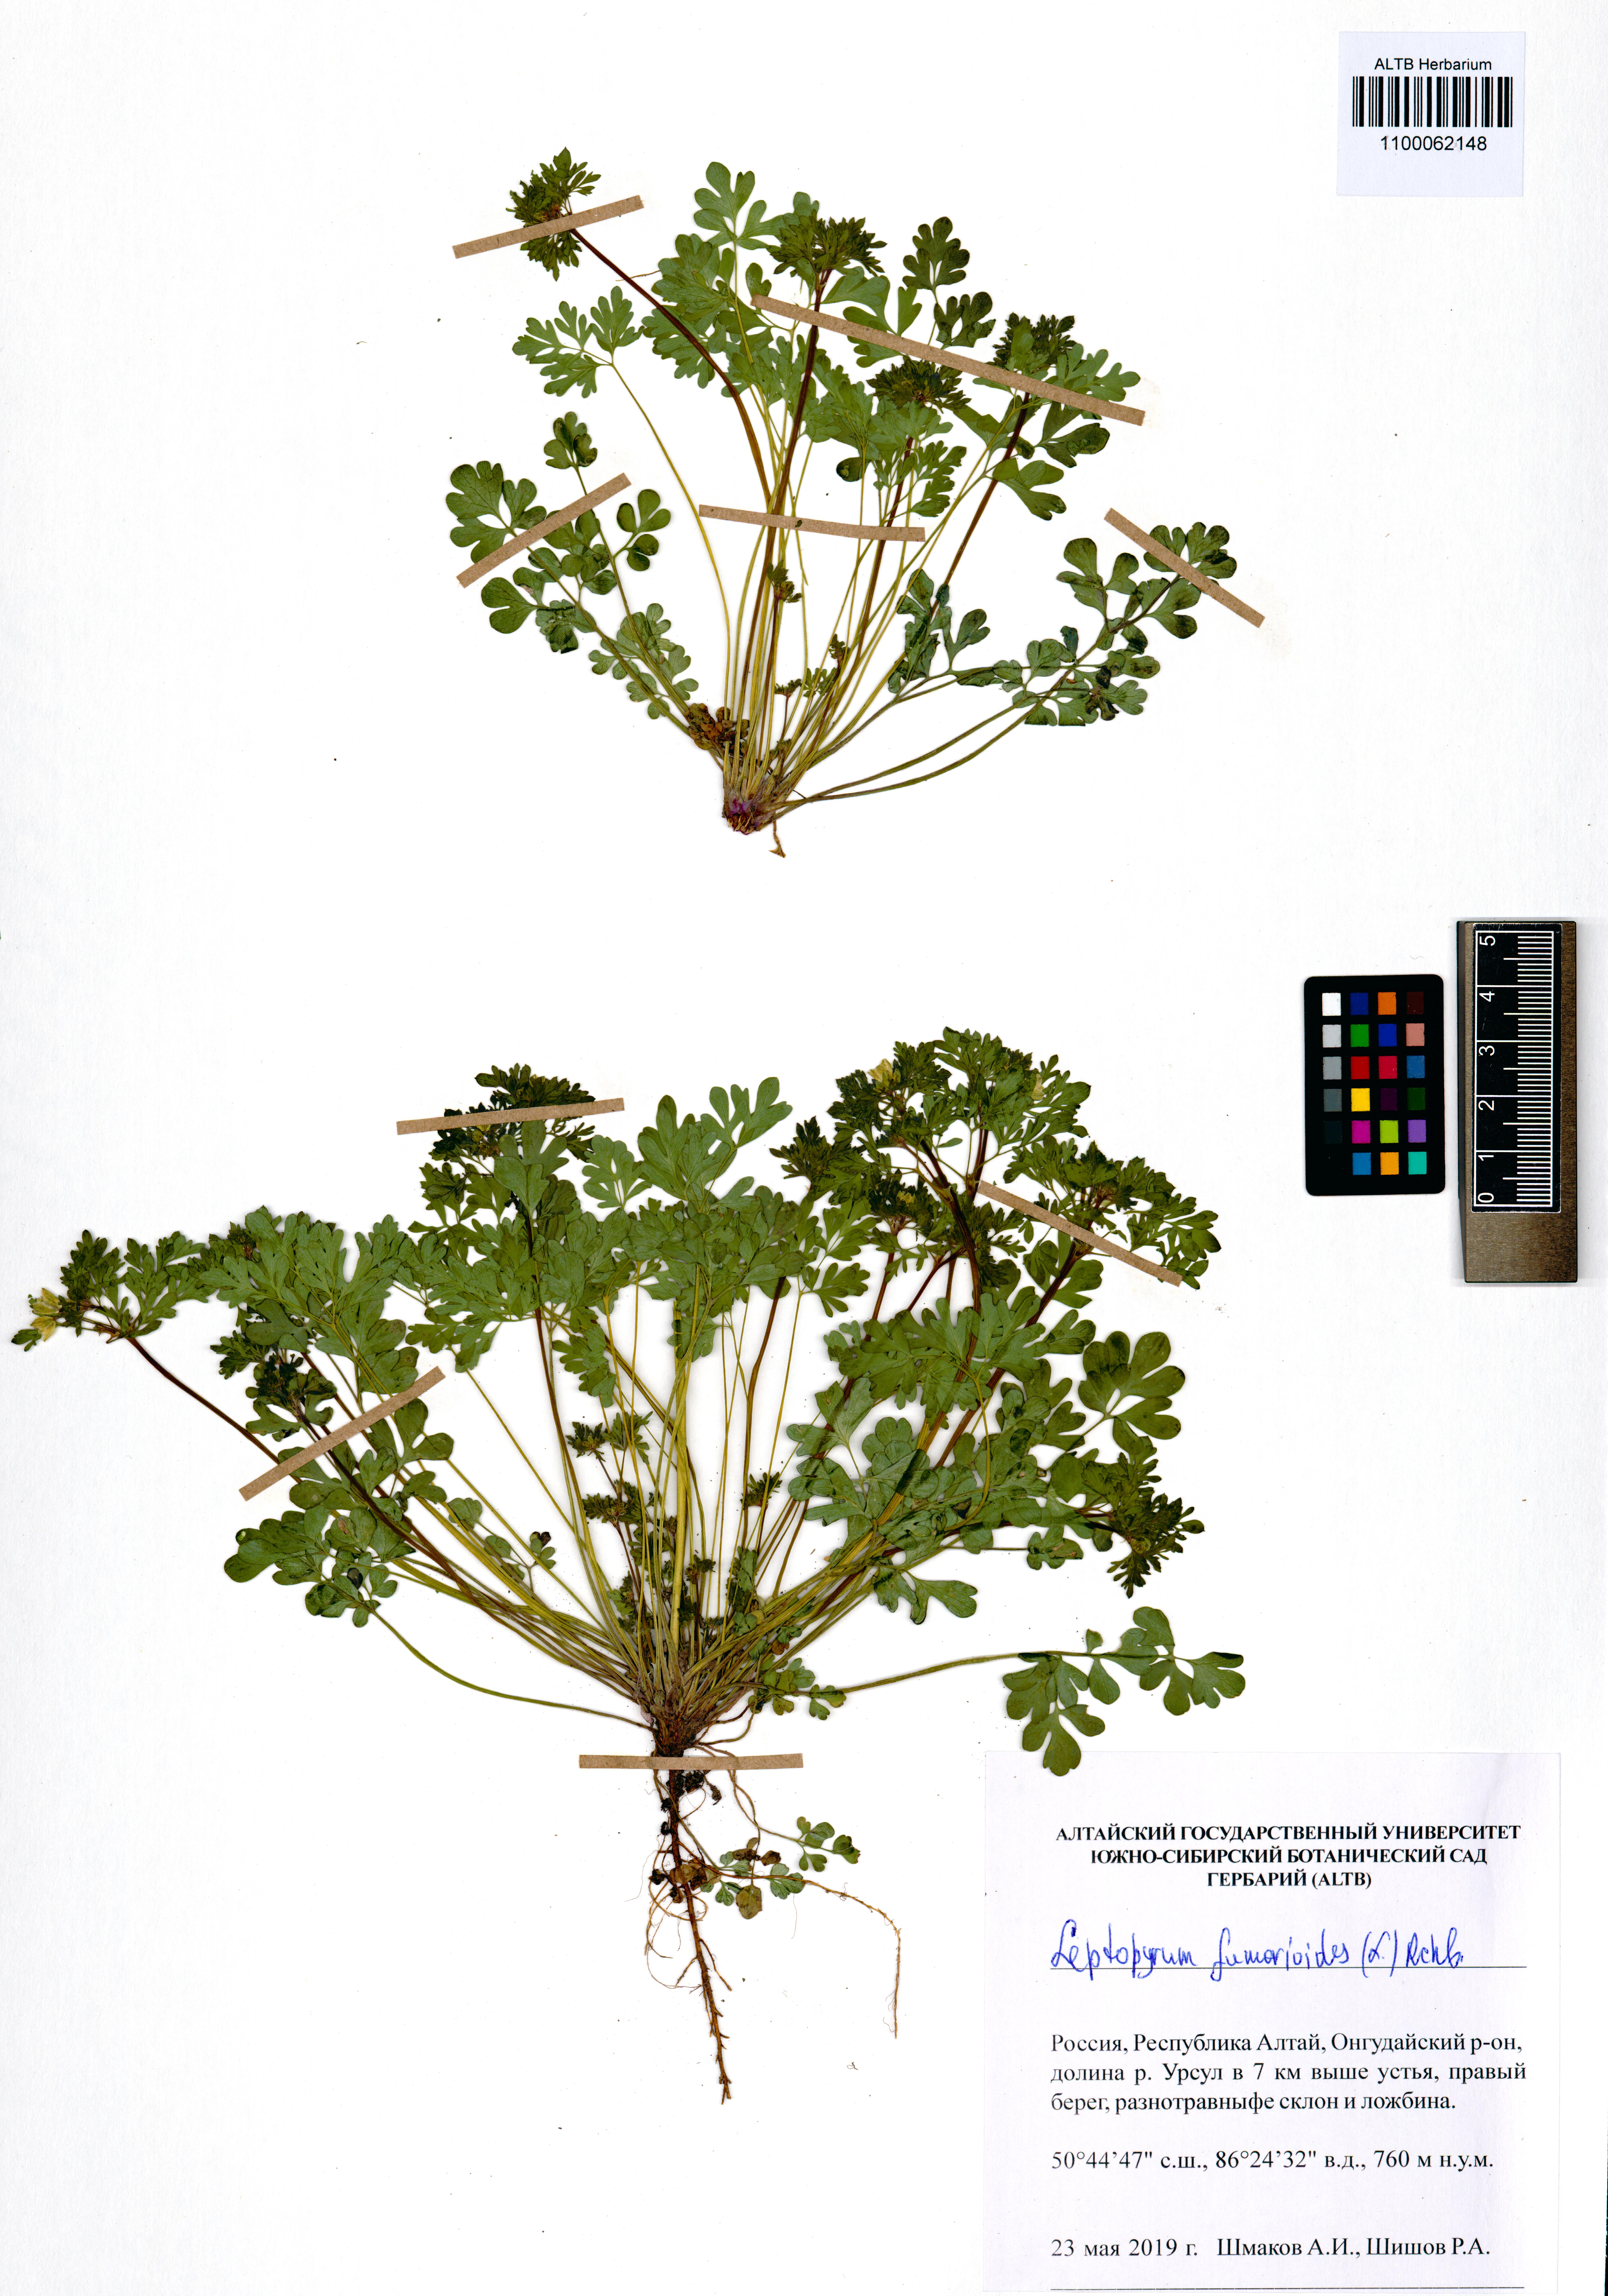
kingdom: Plantae
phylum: Tracheophyta
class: Magnoliopsida
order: Ranunculales
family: Ranunculaceae
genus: Leptopyrum
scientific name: Leptopyrum fumarioides
